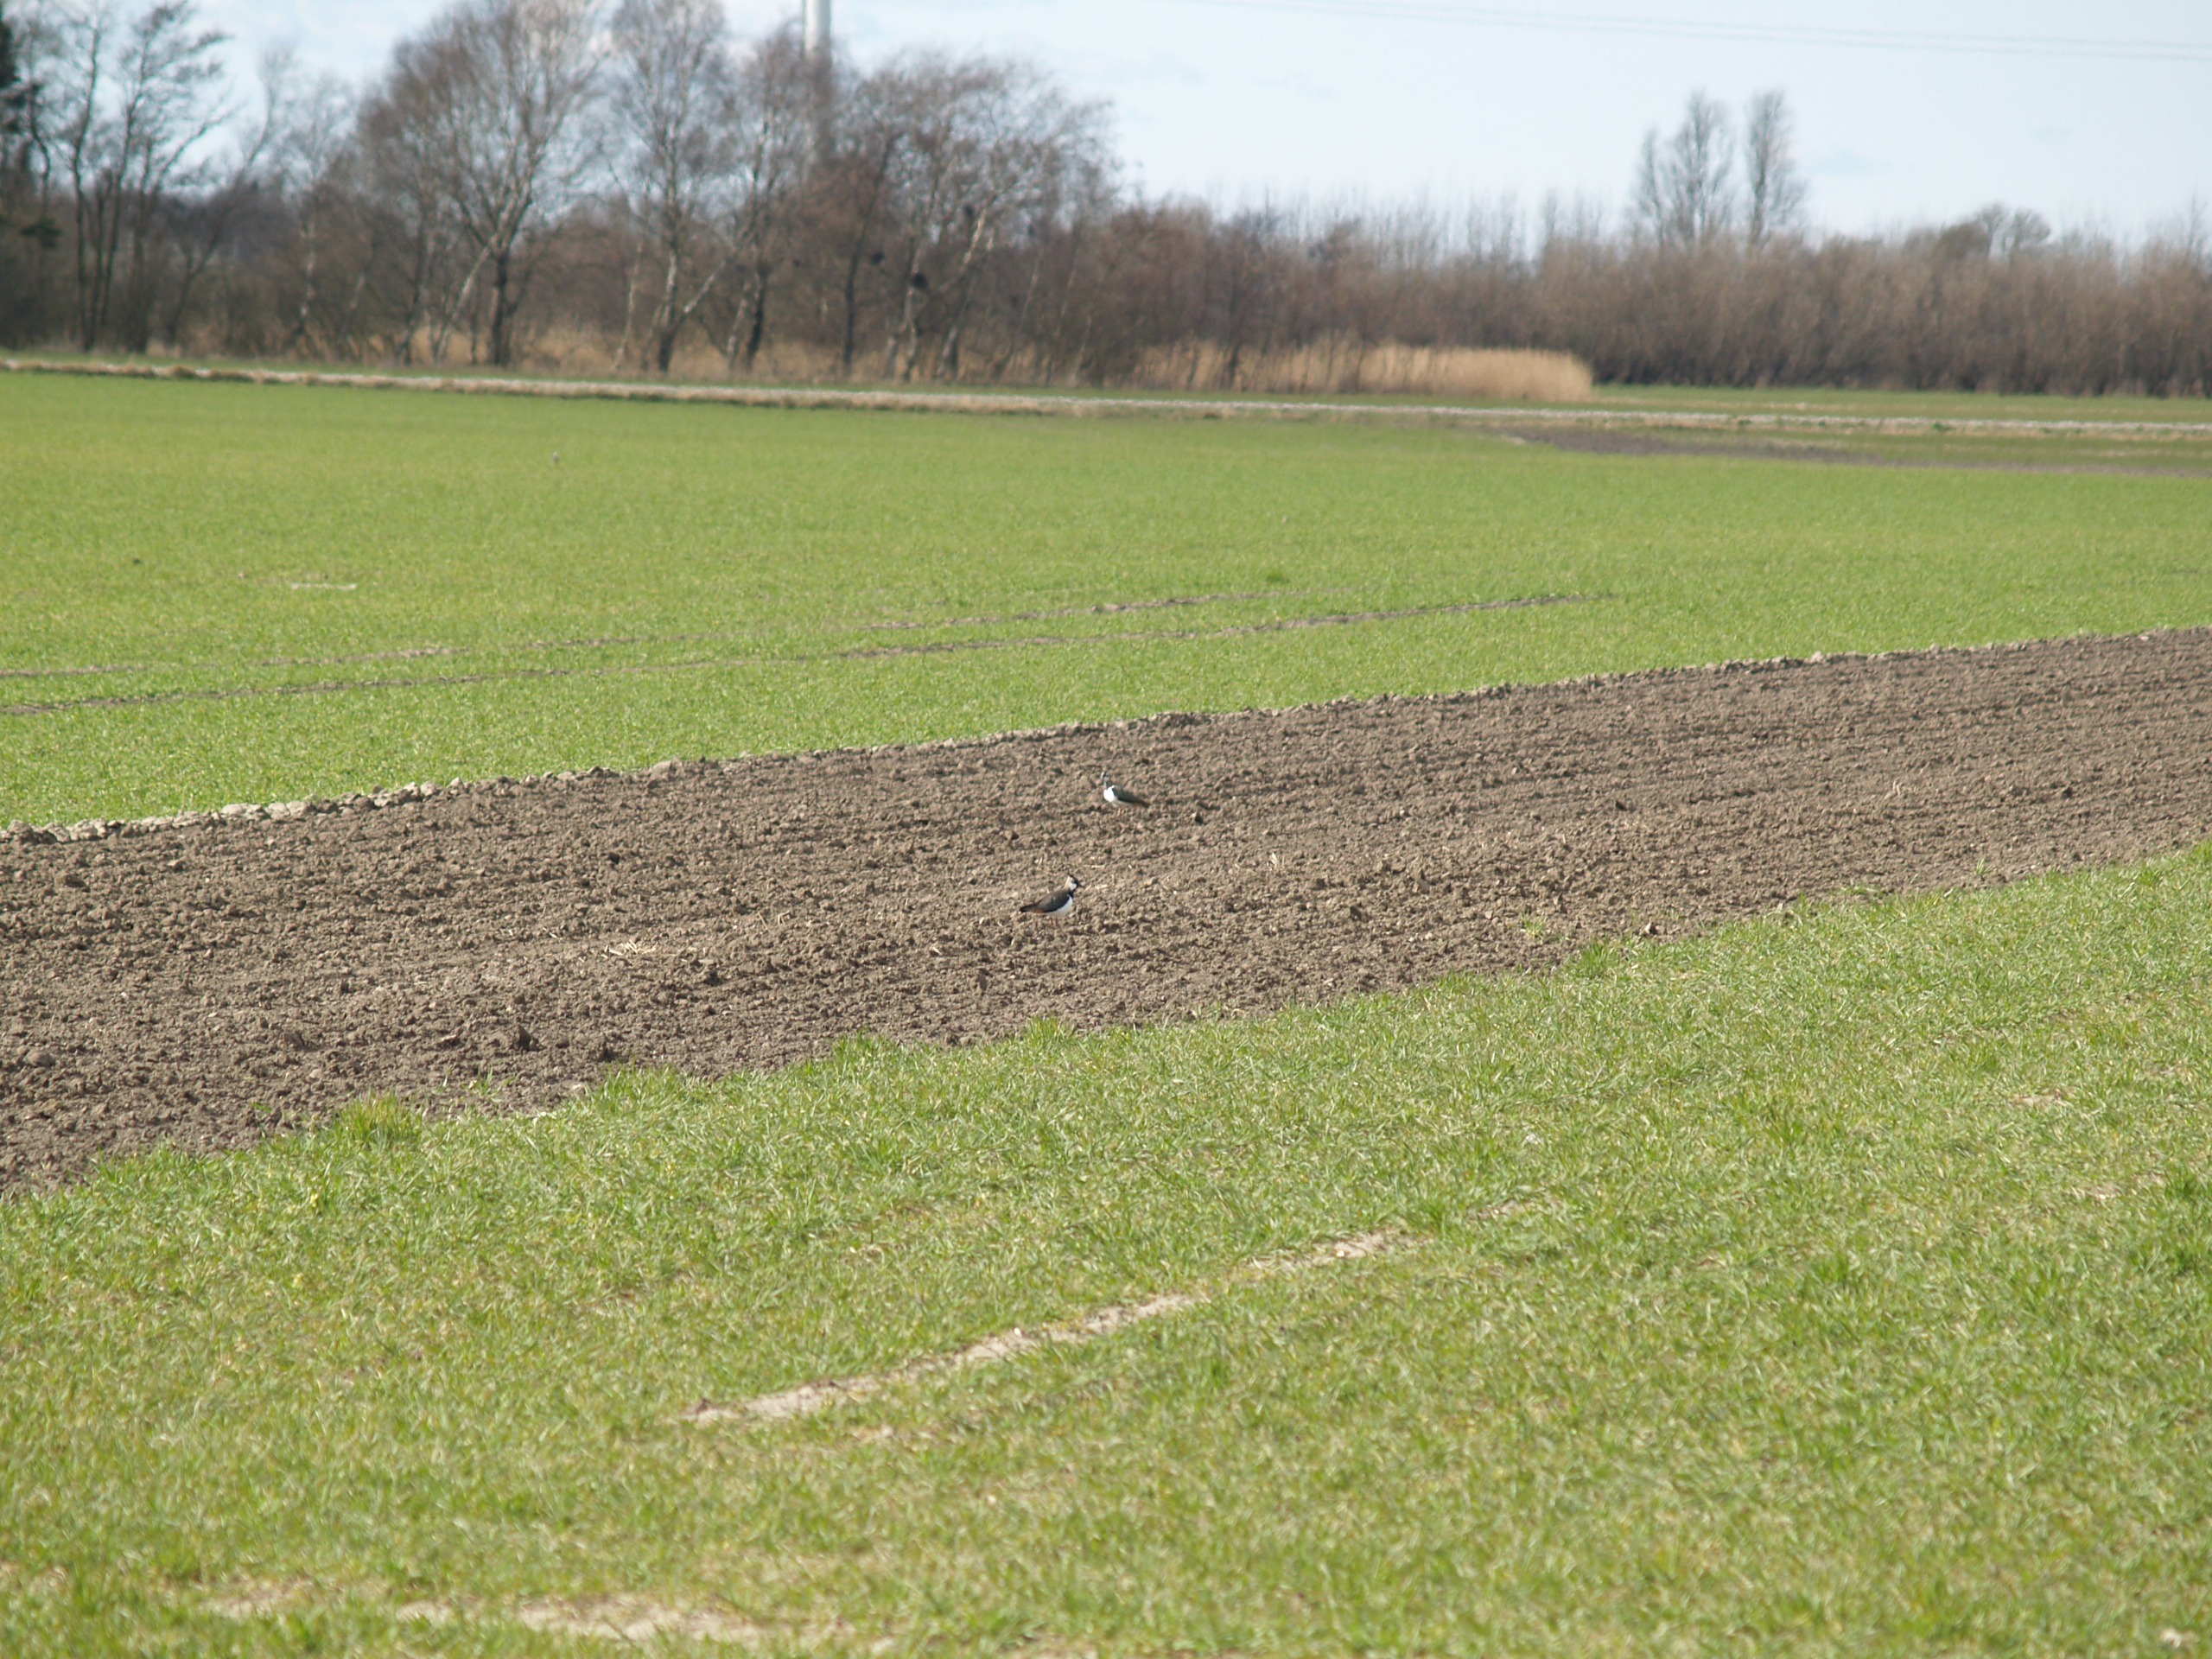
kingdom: Animalia
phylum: Chordata
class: Aves
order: Charadriiformes
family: Charadriidae
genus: Vanellus
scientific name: Vanellus vanellus
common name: Vibe
